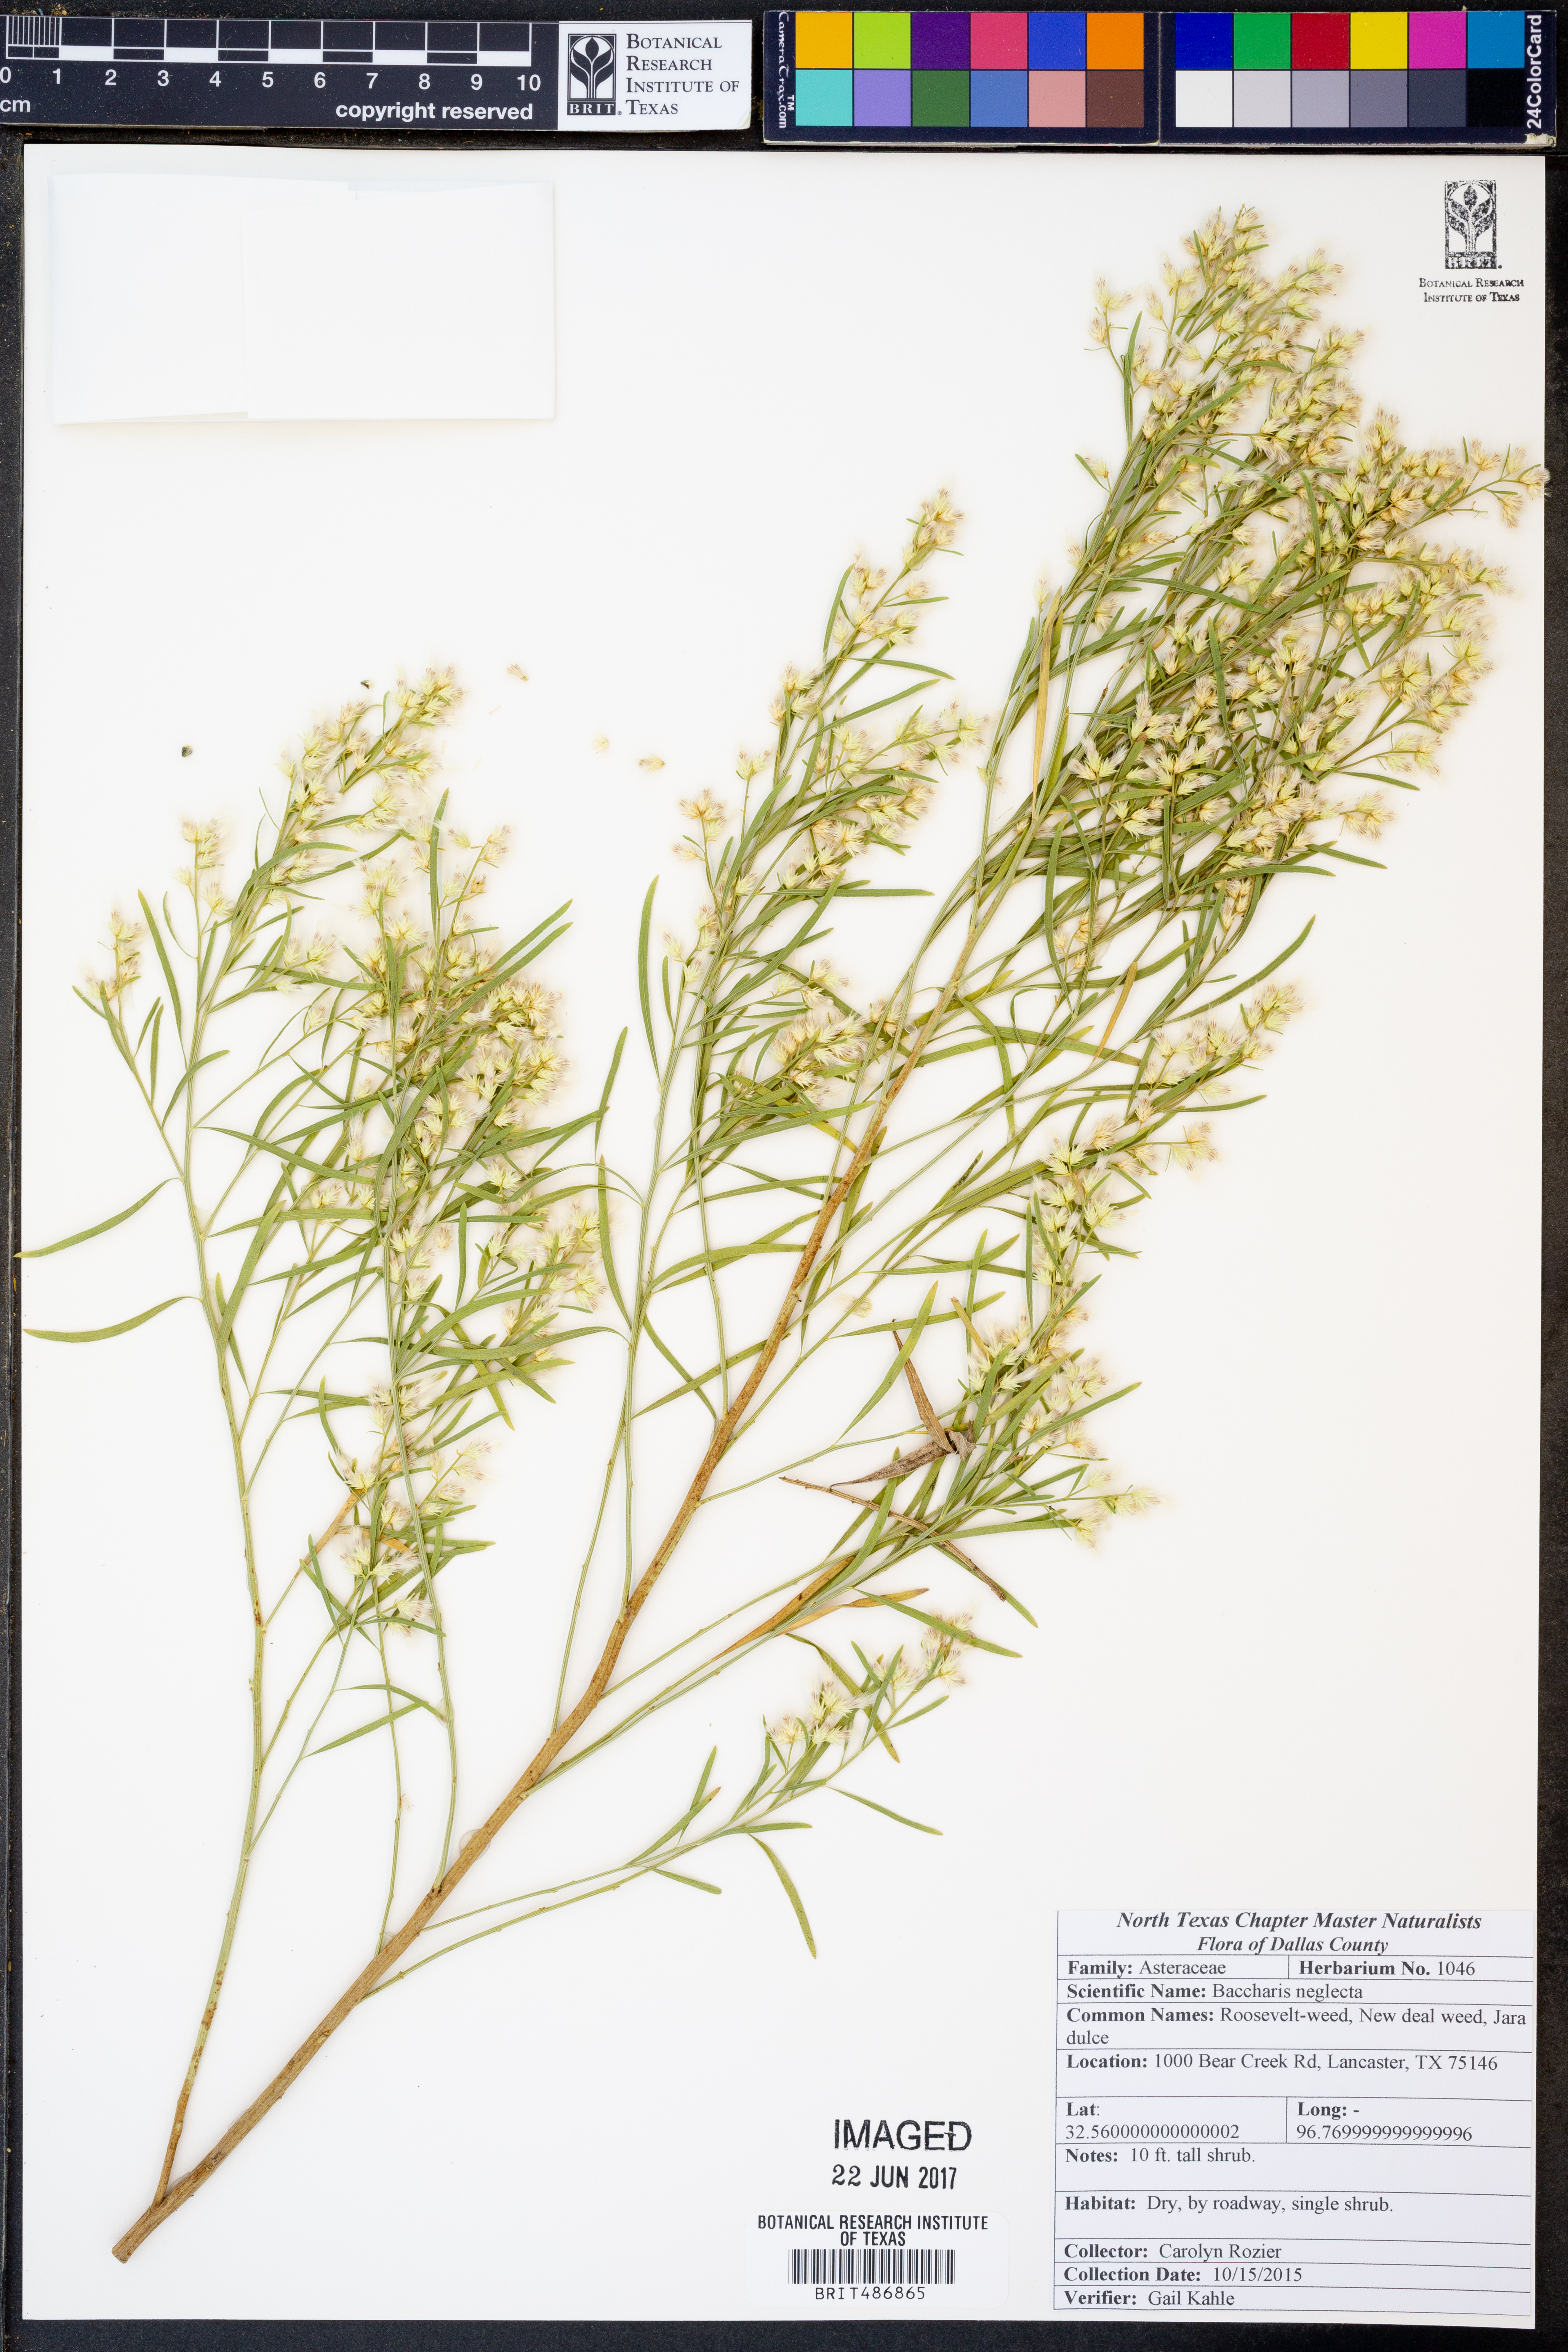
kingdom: Plantae
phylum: Tracheophyta
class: Magnoliopsida
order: Asterales
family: Asteraceae
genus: Baccharis
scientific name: Baccharis neglecta
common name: Roosevelt-weed
